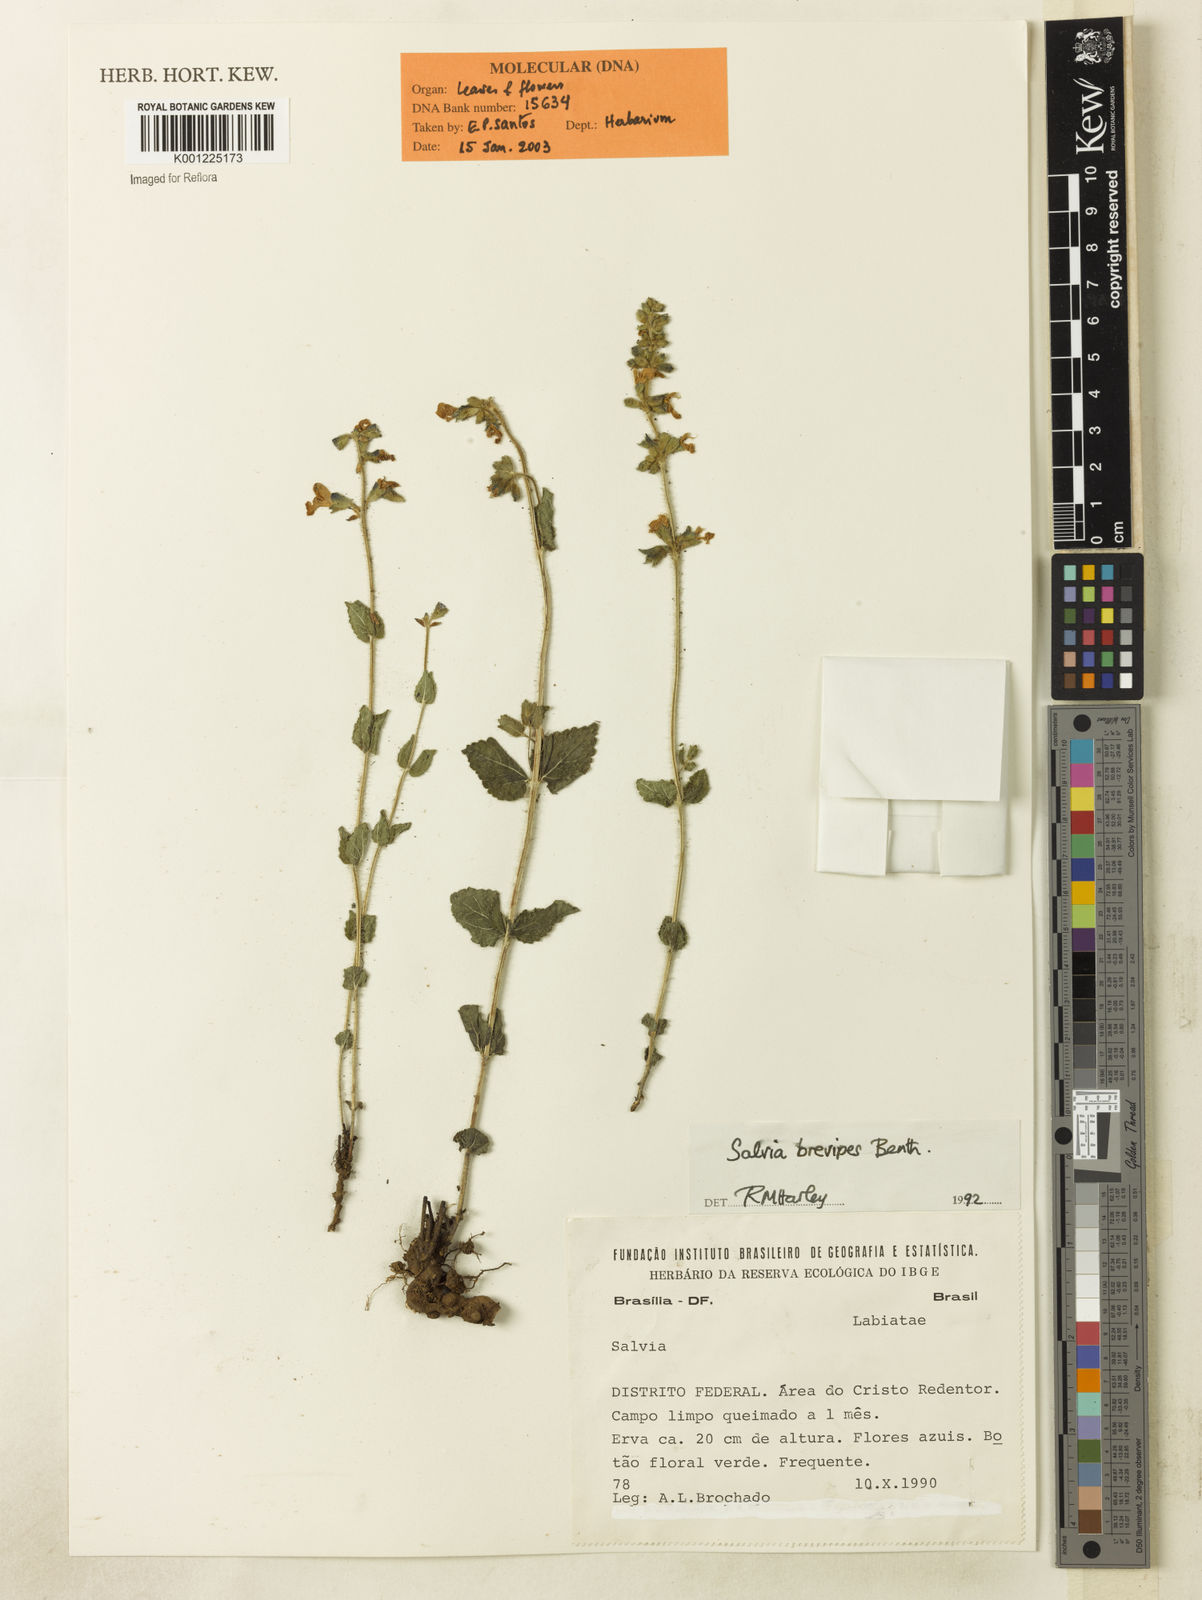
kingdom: Plantae
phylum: Tracheophyta
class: Magnoliopsida
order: Lamiales
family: Lamiaceae
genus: Salvia
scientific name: Salvia cerradicola
